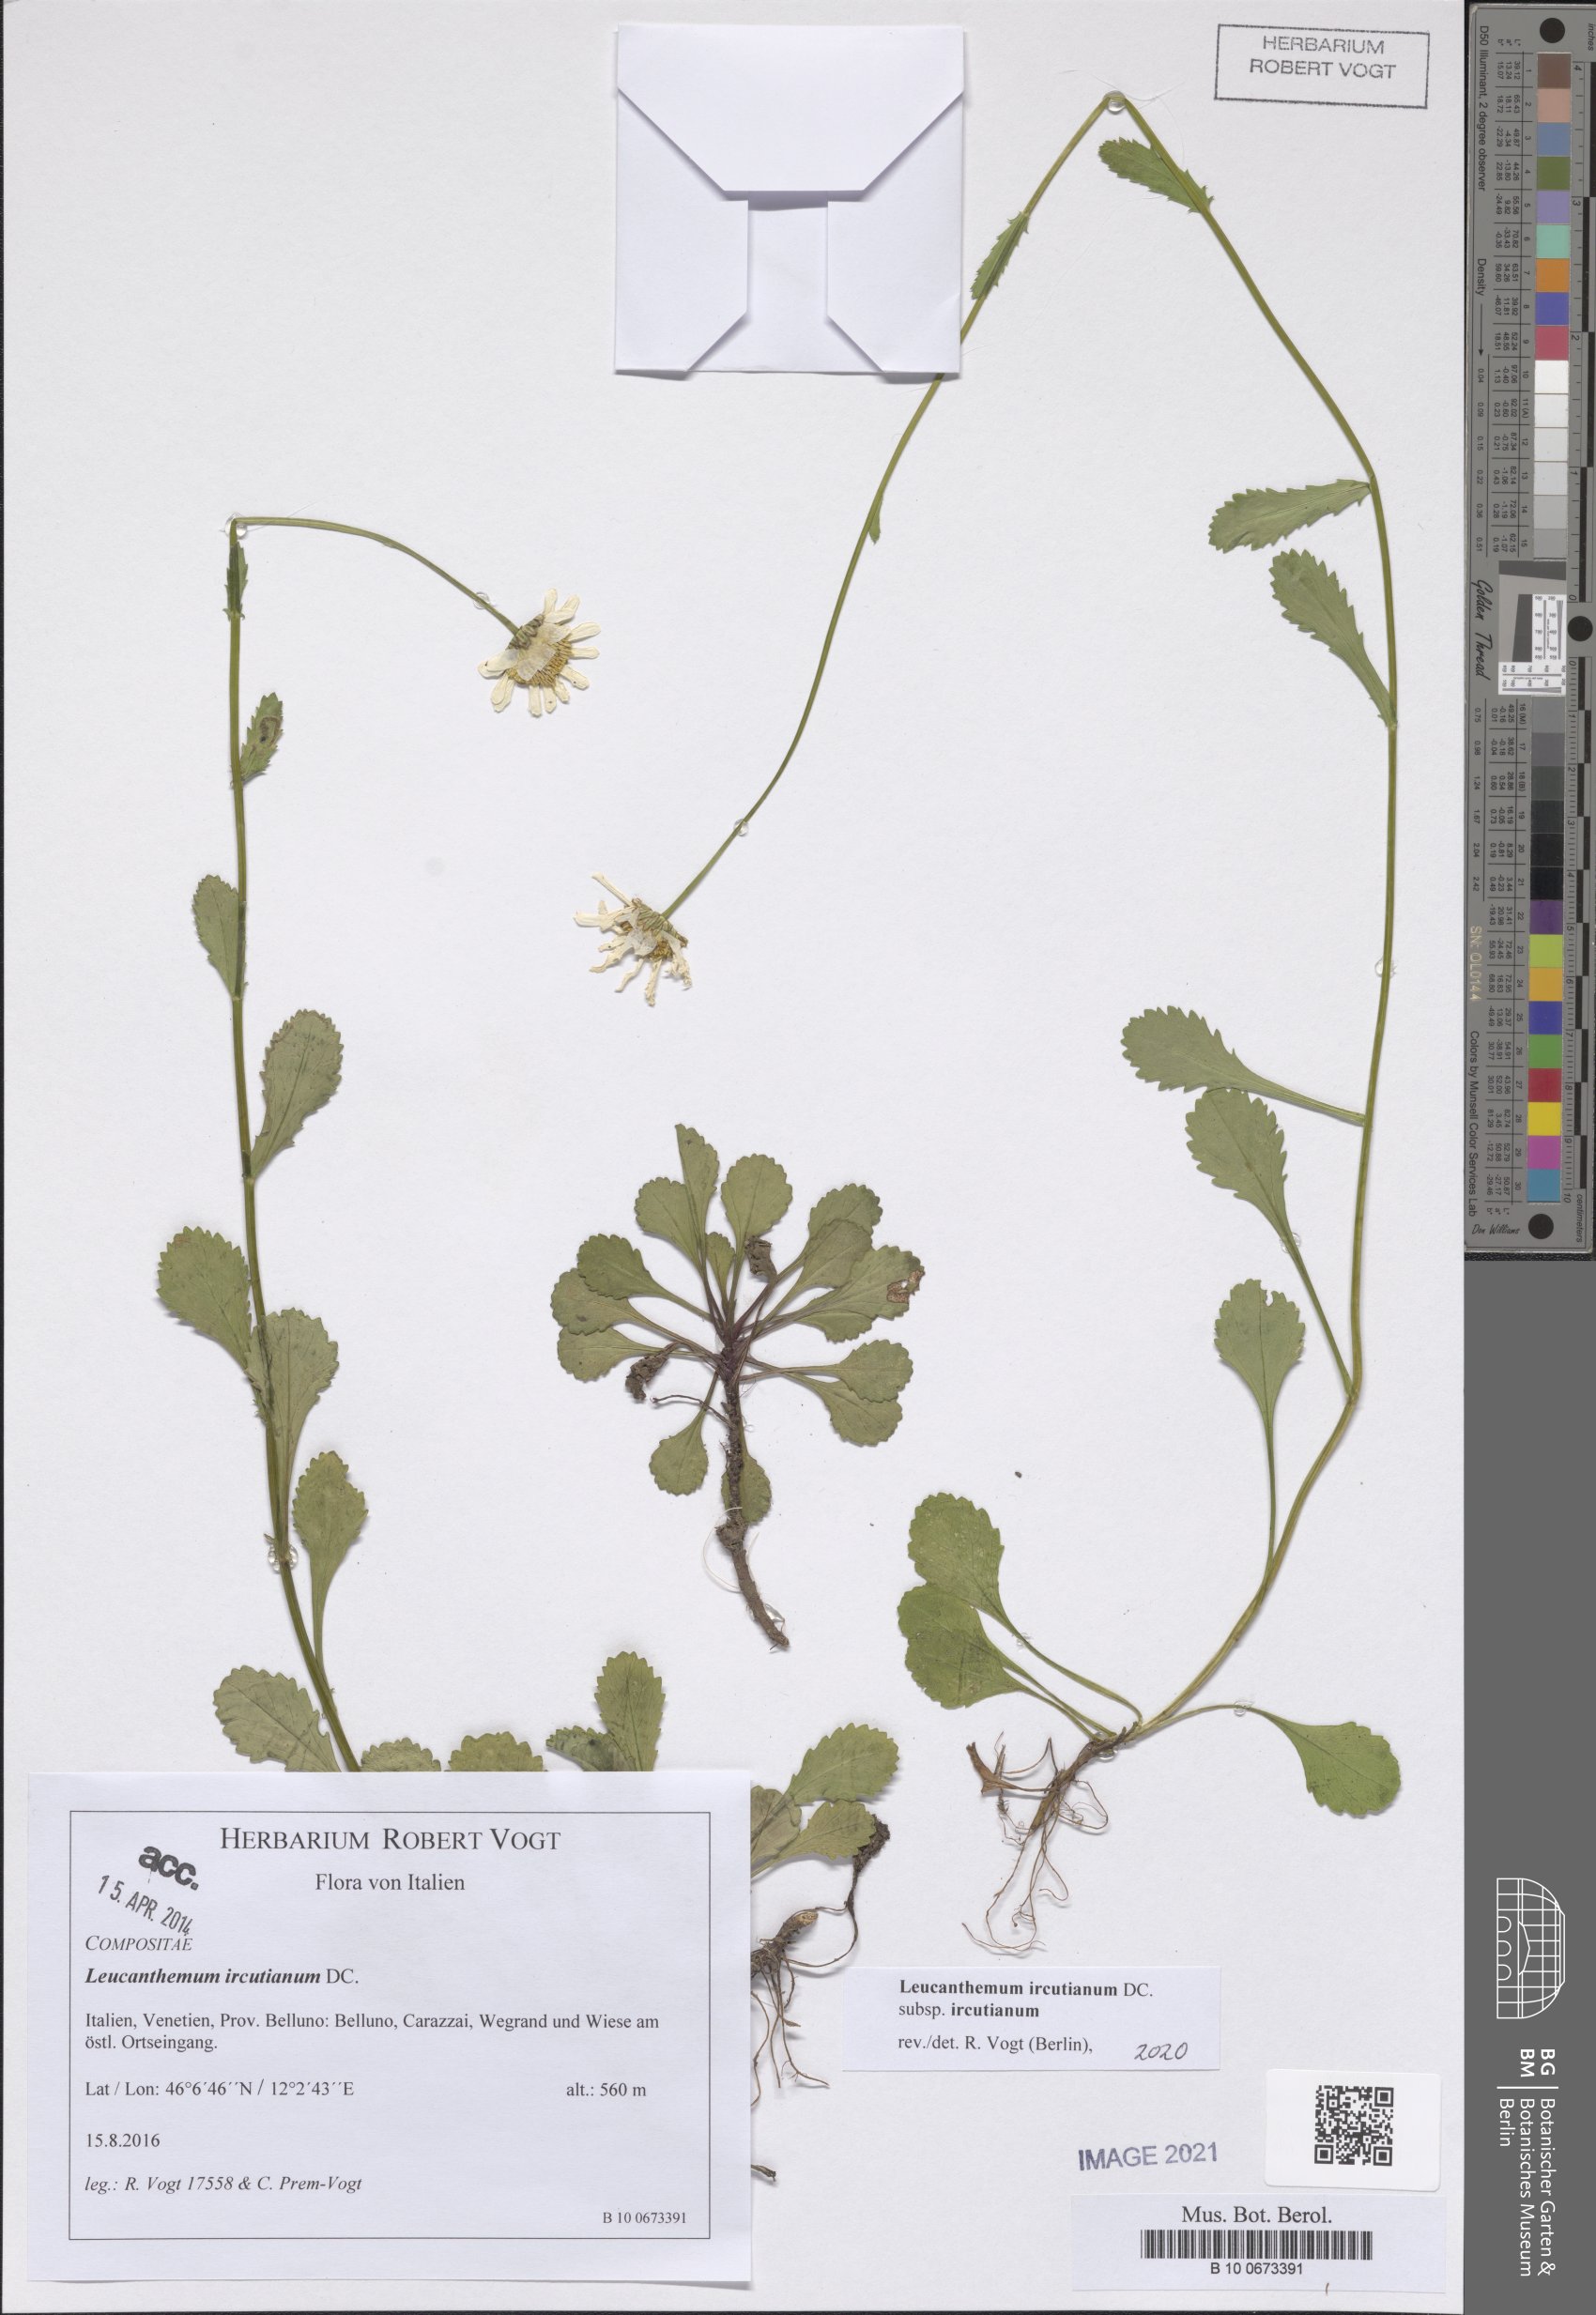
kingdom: Plantae
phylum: Tracheophyta
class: Magnoliopsida
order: Asterales
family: Asteraceae
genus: Leucanthemum
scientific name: Leucanthemum ircutianum
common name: Daisy
